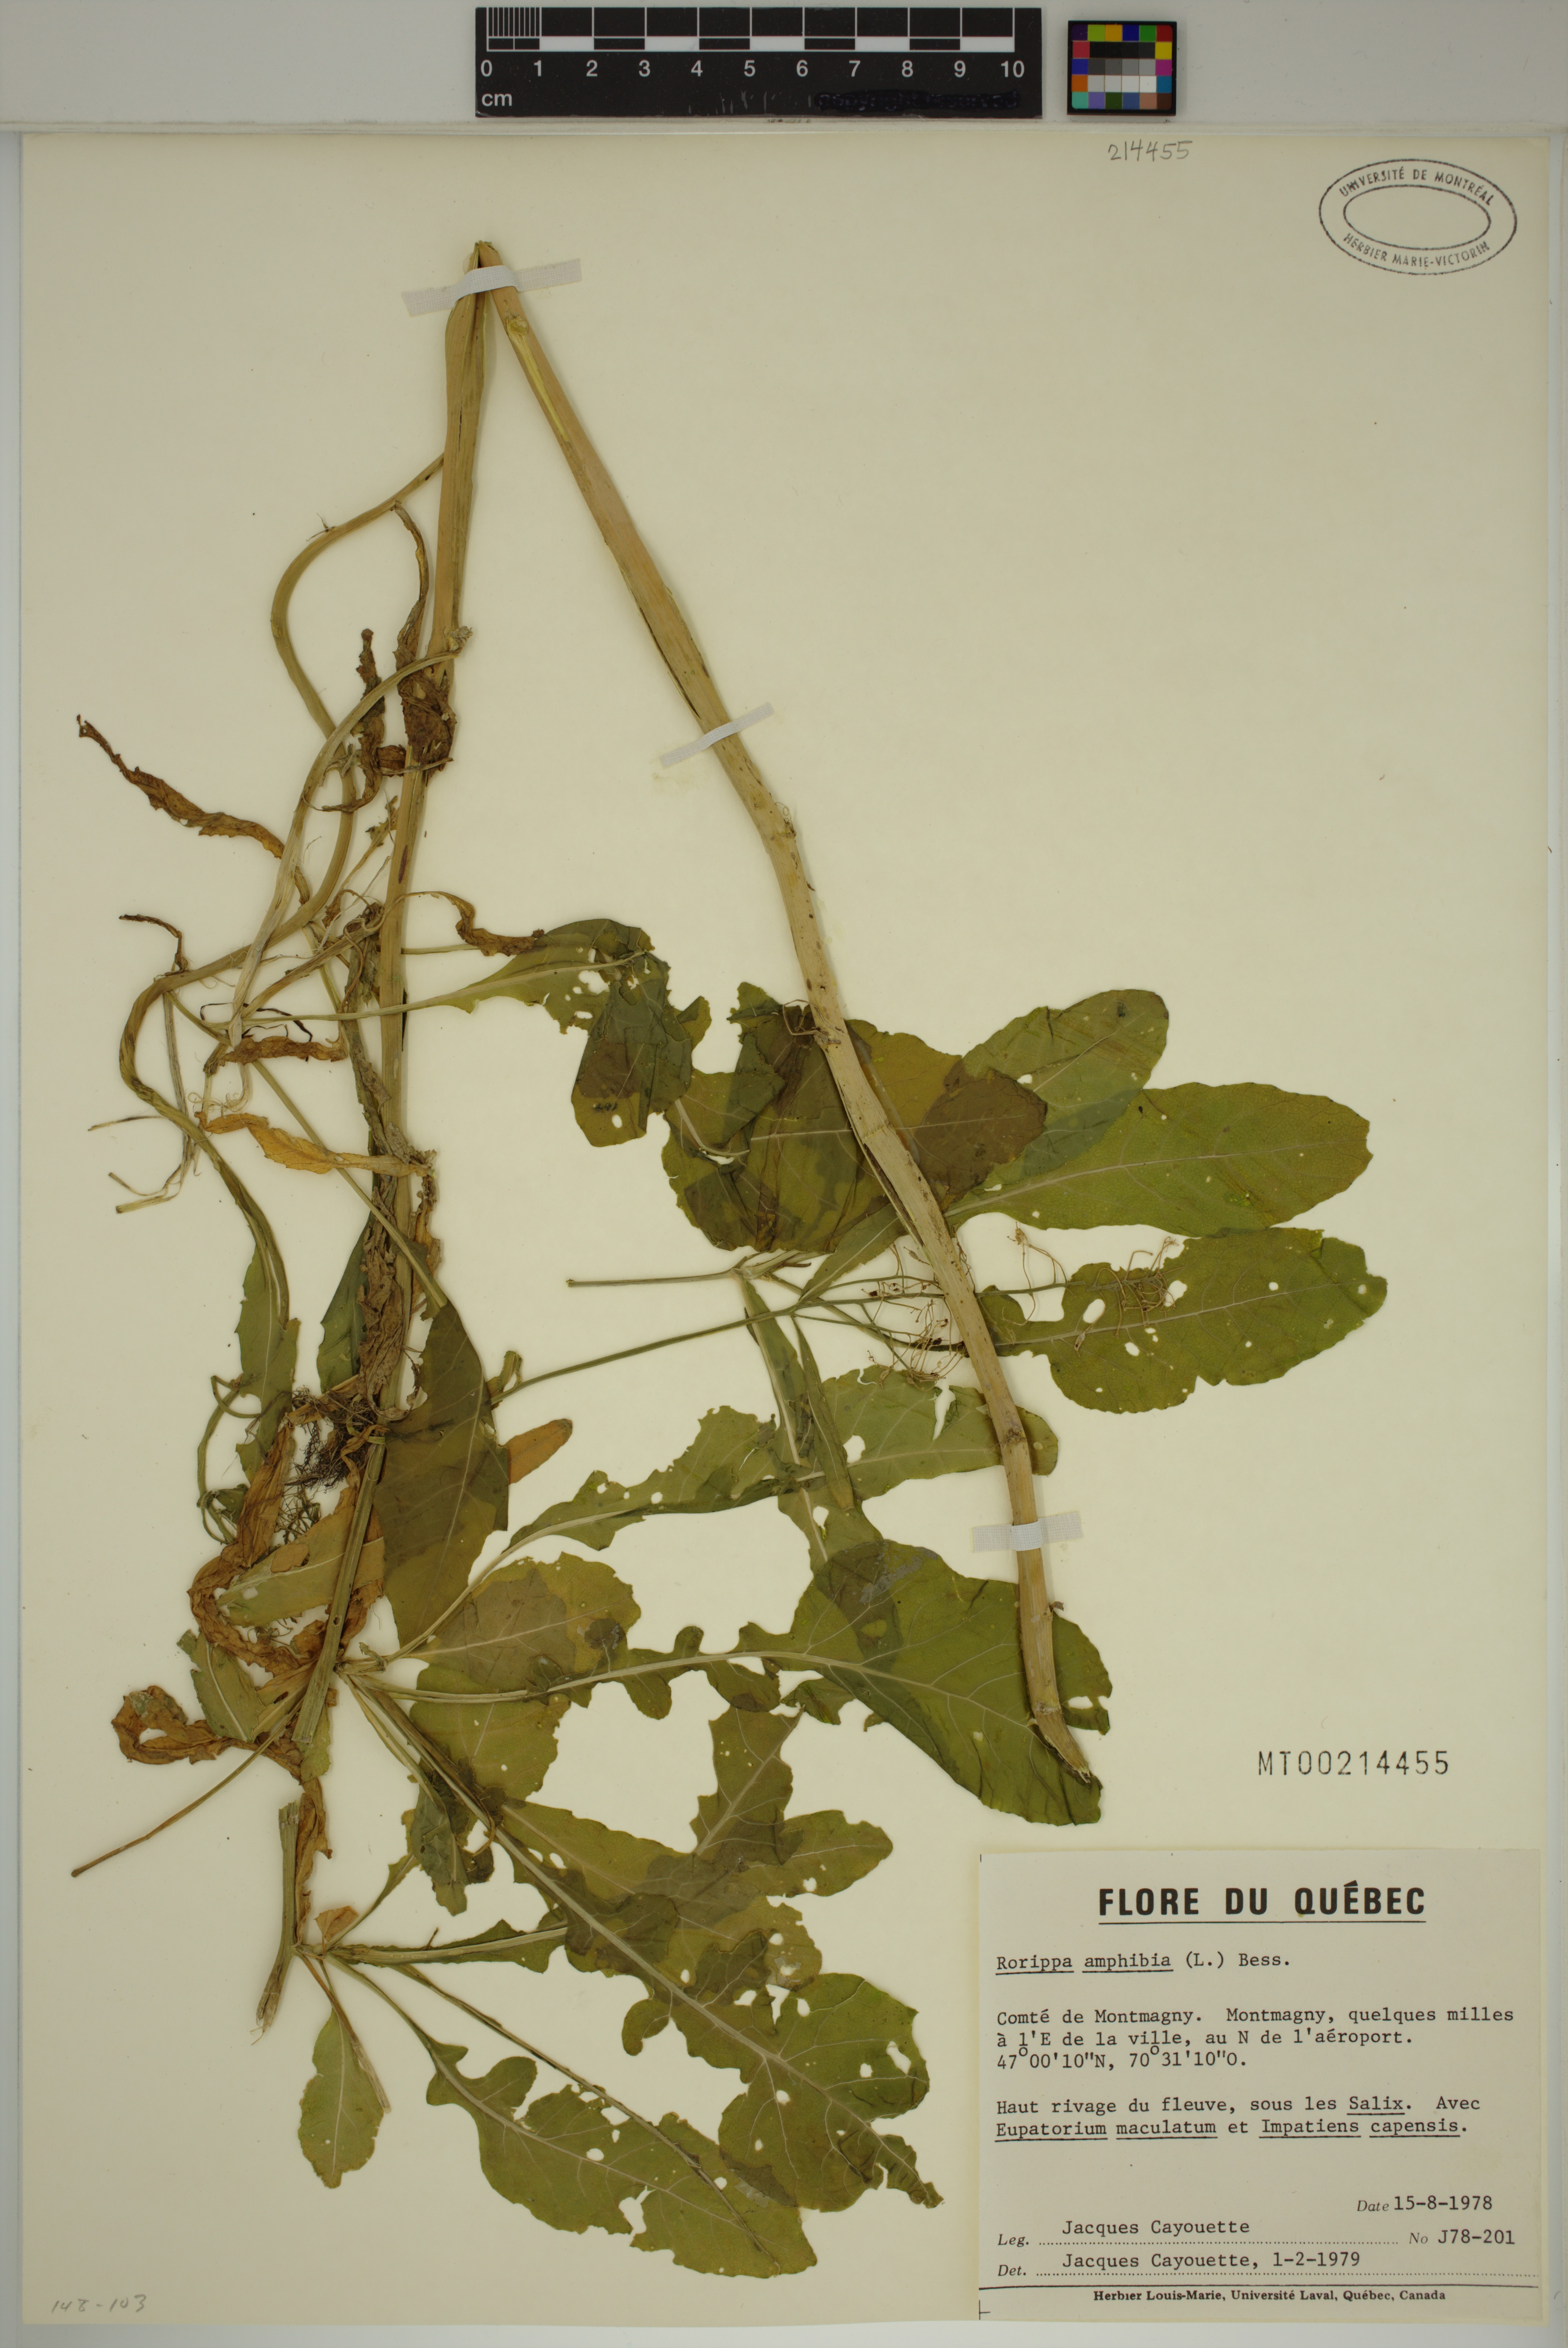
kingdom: Plantae
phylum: Tracheophyta
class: Magnoliopsida
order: Brassicales
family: Brassicaceae
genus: Rorippa
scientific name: Rorippa amphibia
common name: Great yellow-cress
